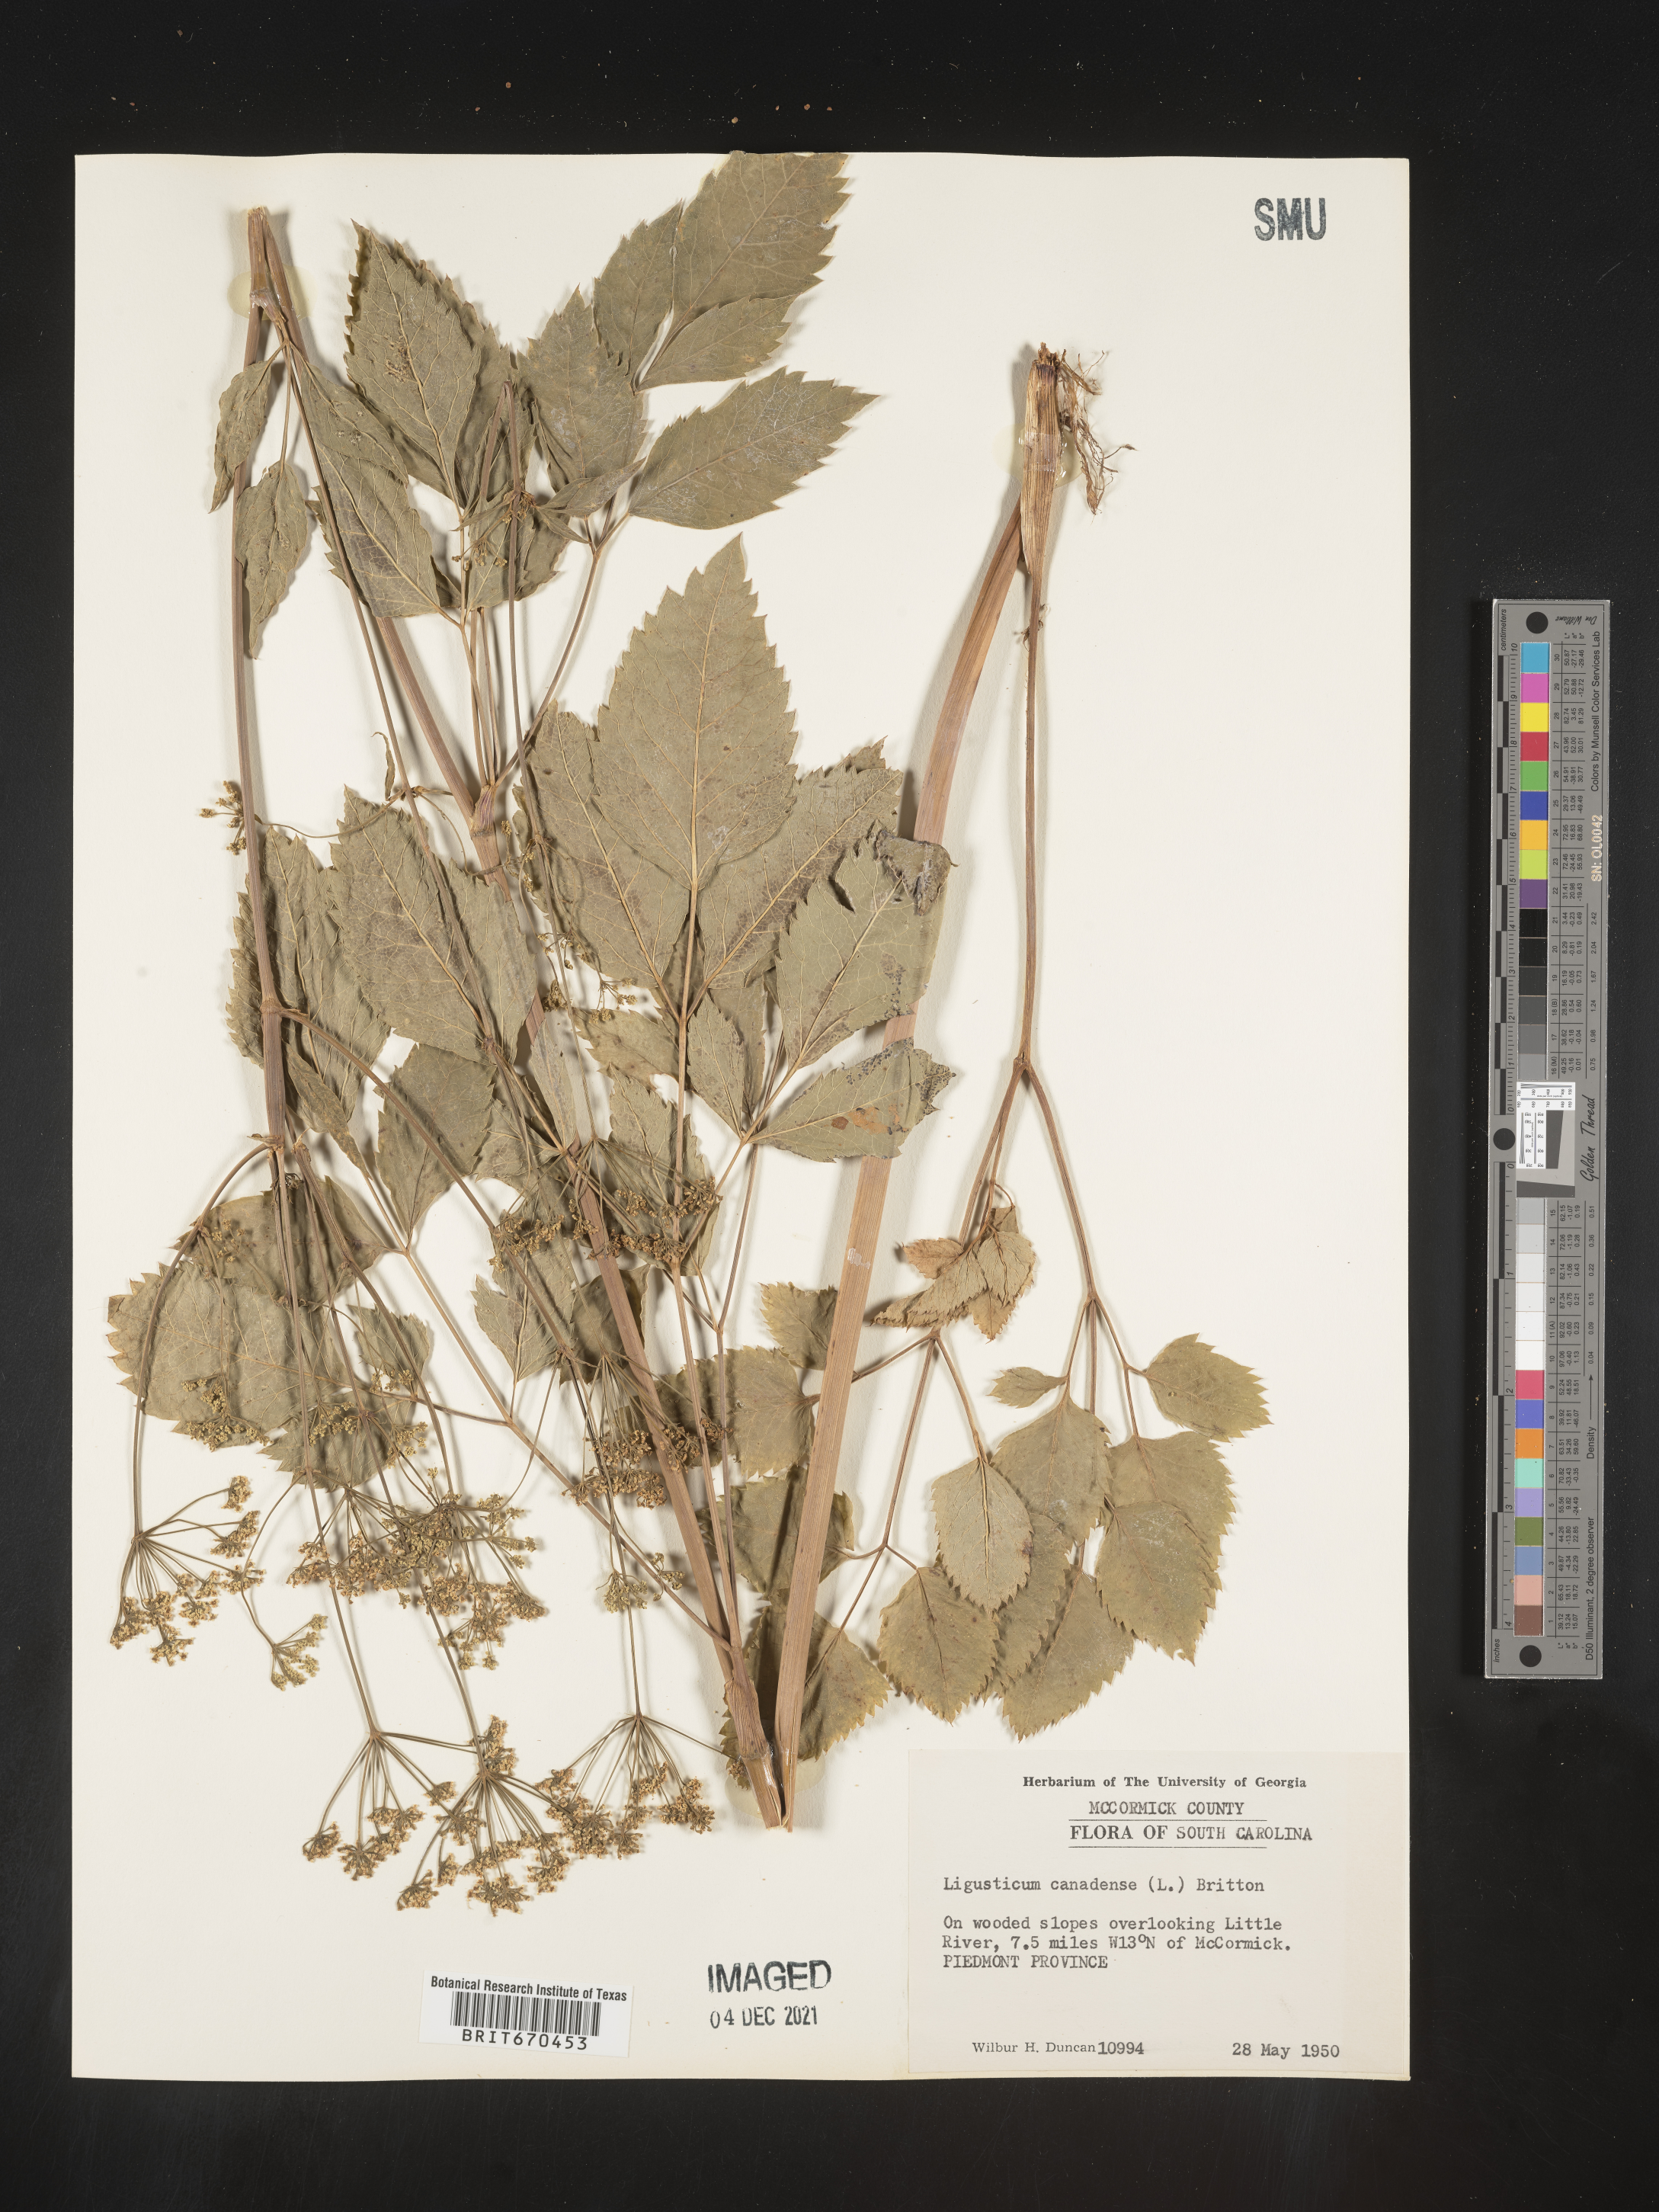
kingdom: Plantae
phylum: Tracheophyta
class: Magnoliopsida
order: Apiales
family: Apiaceae
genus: Ligusticum
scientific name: Ligusticum
